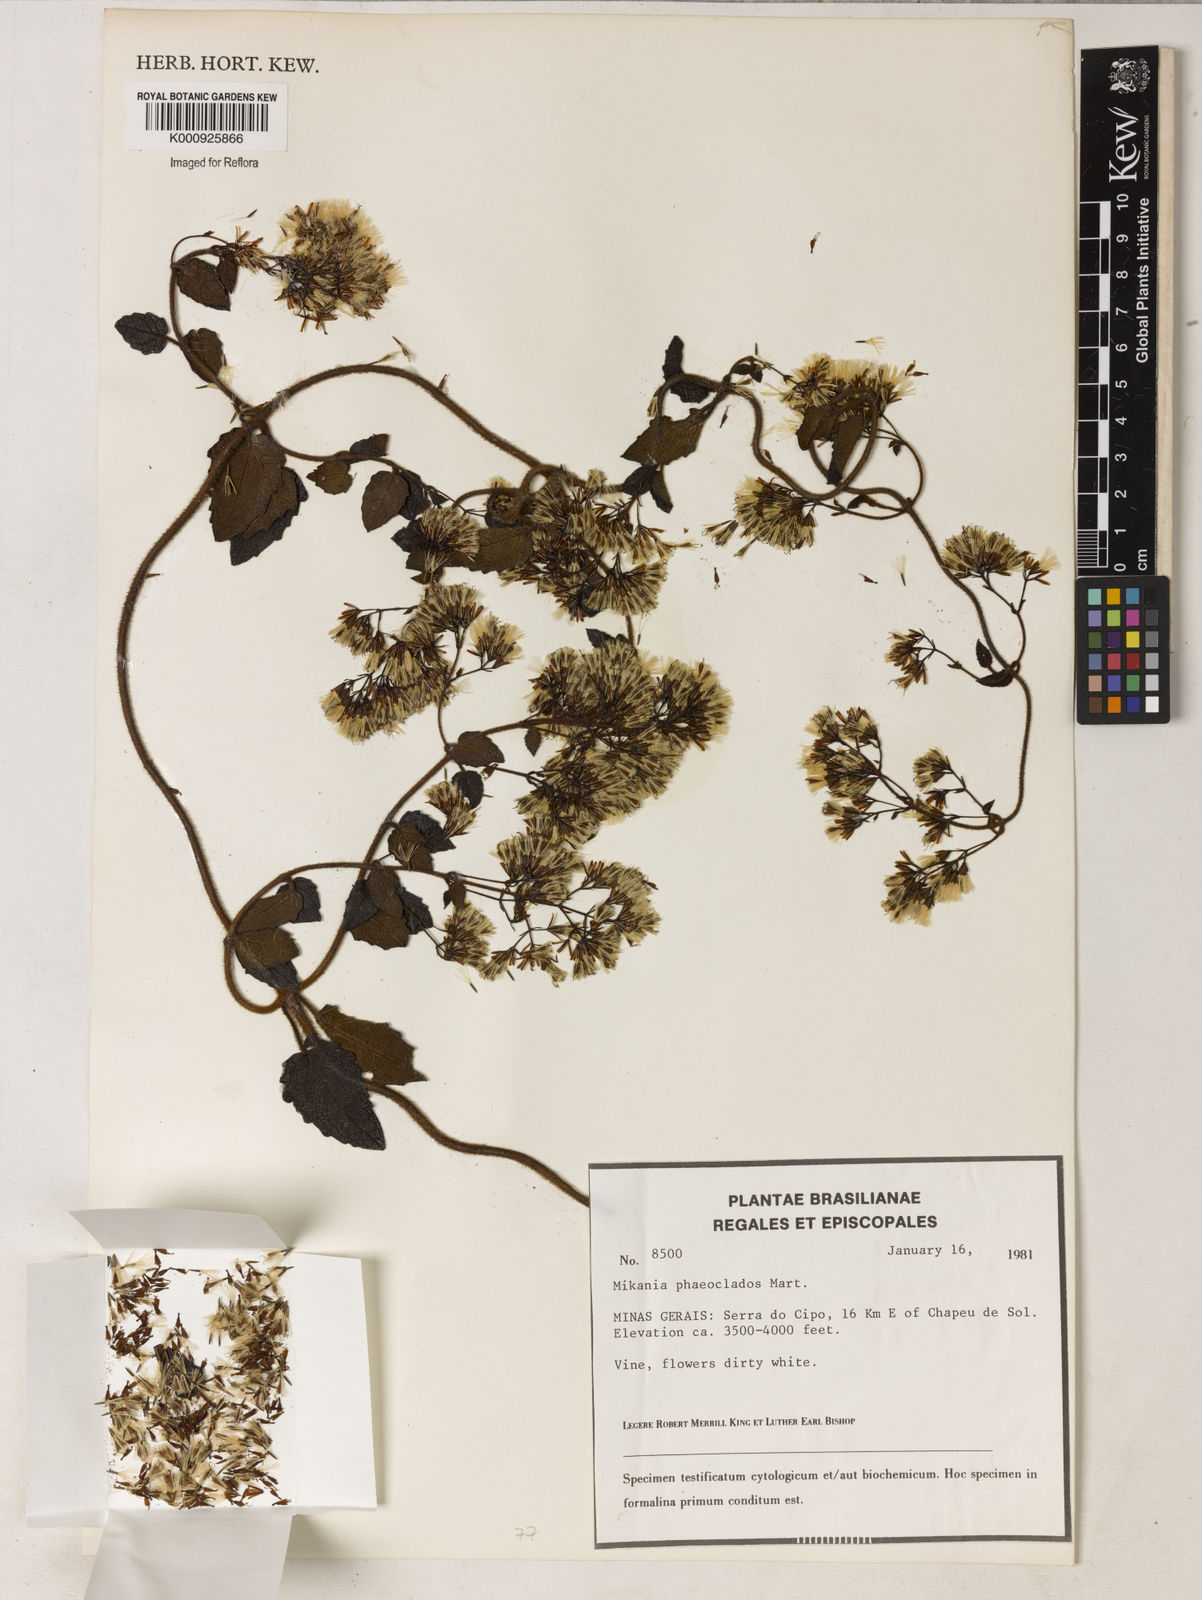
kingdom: Plantae
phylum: Tracheophyta
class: Magnoliopsida
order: Asterales
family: Asteraceae
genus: Mikania
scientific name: Mikania
